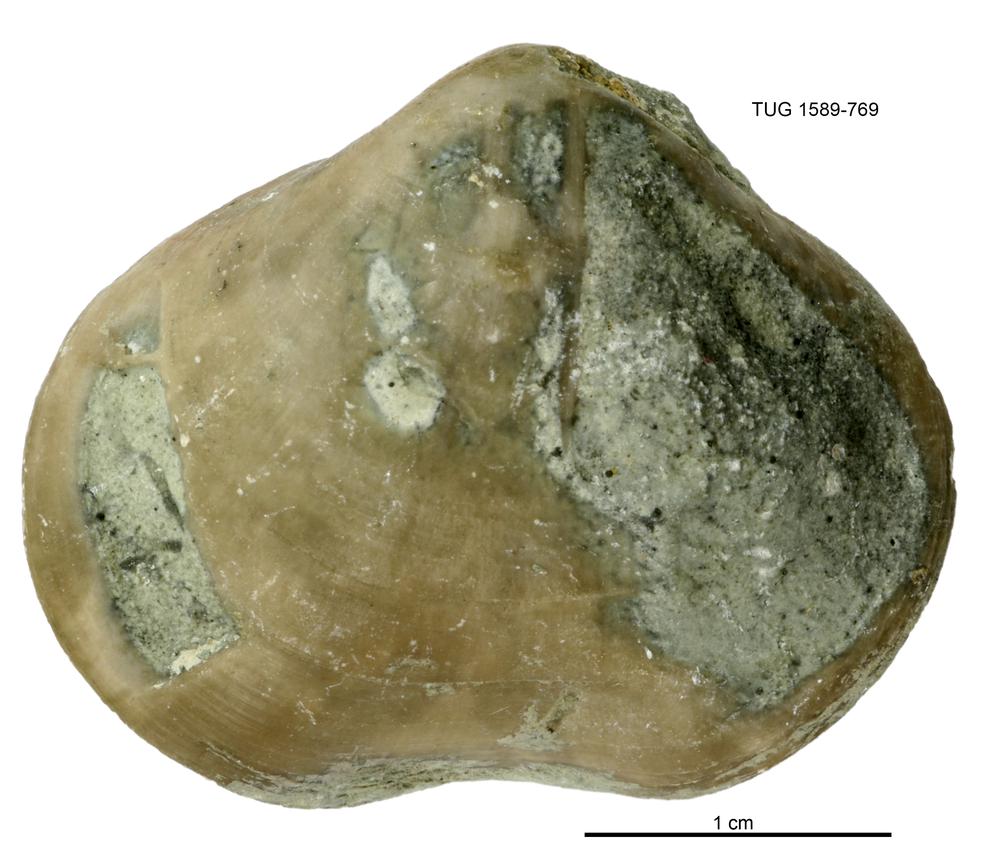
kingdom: Animalia
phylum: Brachiopoda
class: Rhynchonellata
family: Porambonitidae
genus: Porambonites
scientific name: Porambonites
